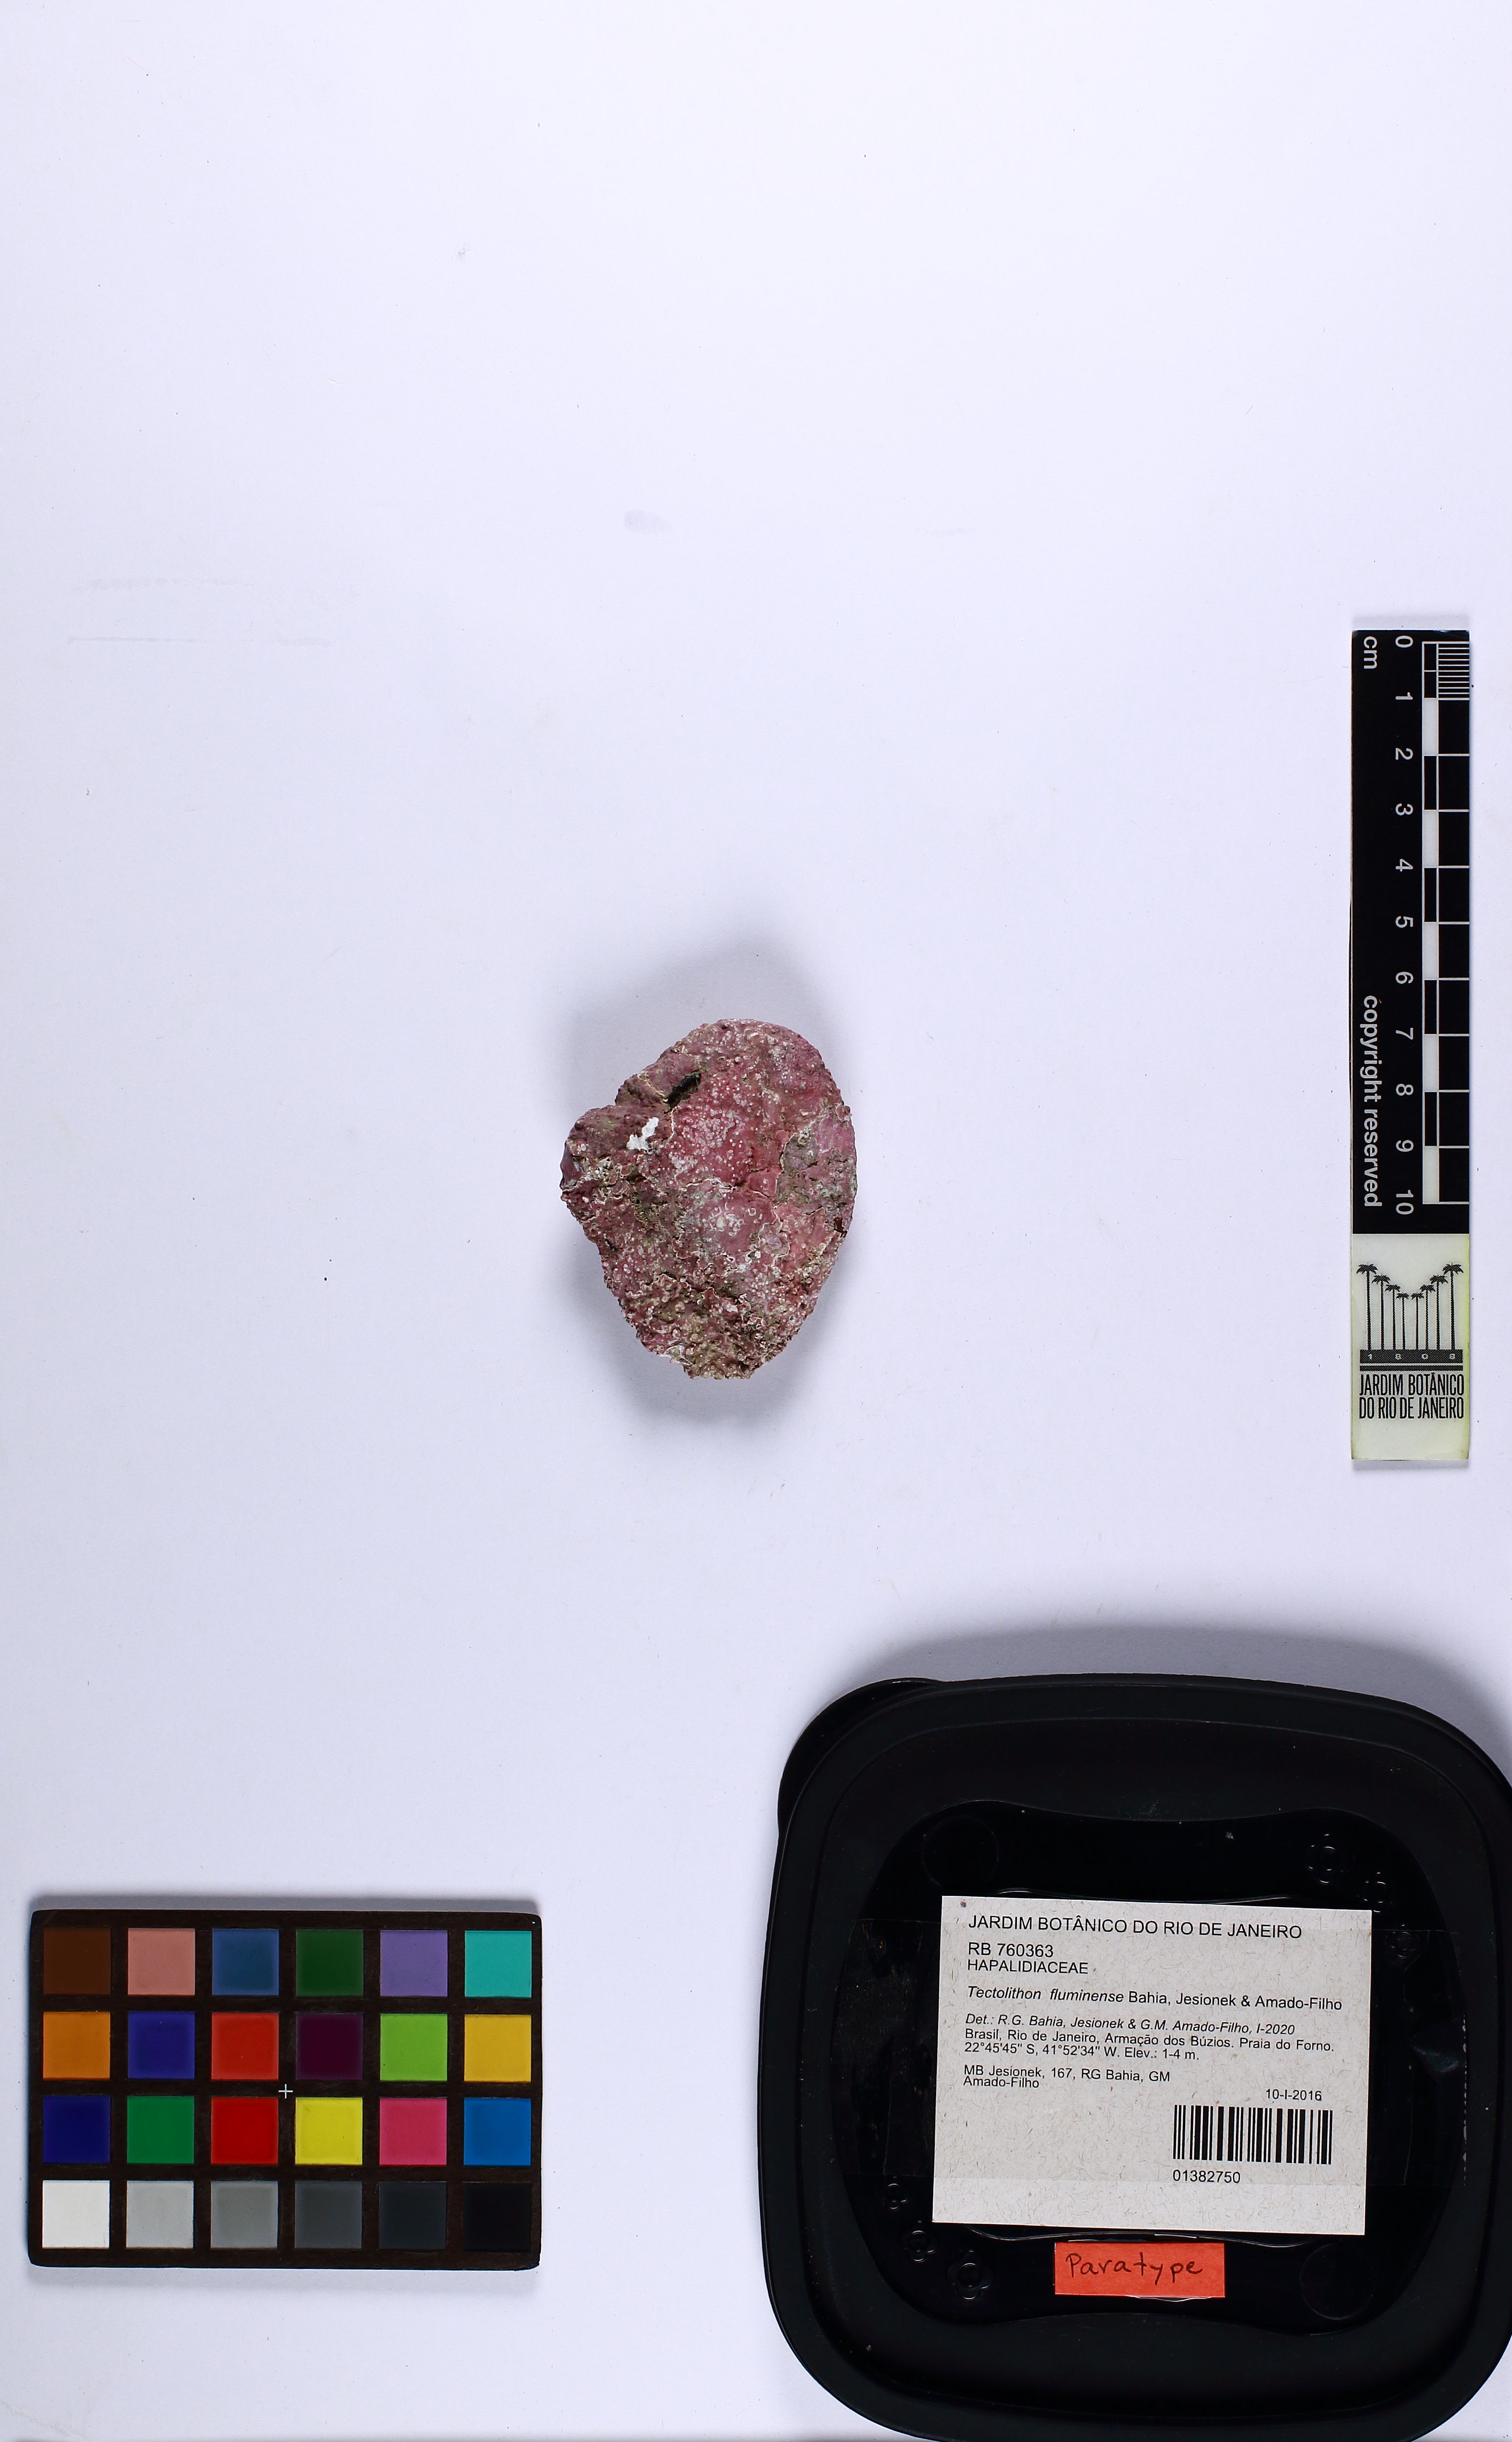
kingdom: Plantae
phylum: Rhodophyta
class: Florideophyceae
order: Corallinales
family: Hapalidiaceae
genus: Tectolithon
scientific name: Tectolithon fluminense
